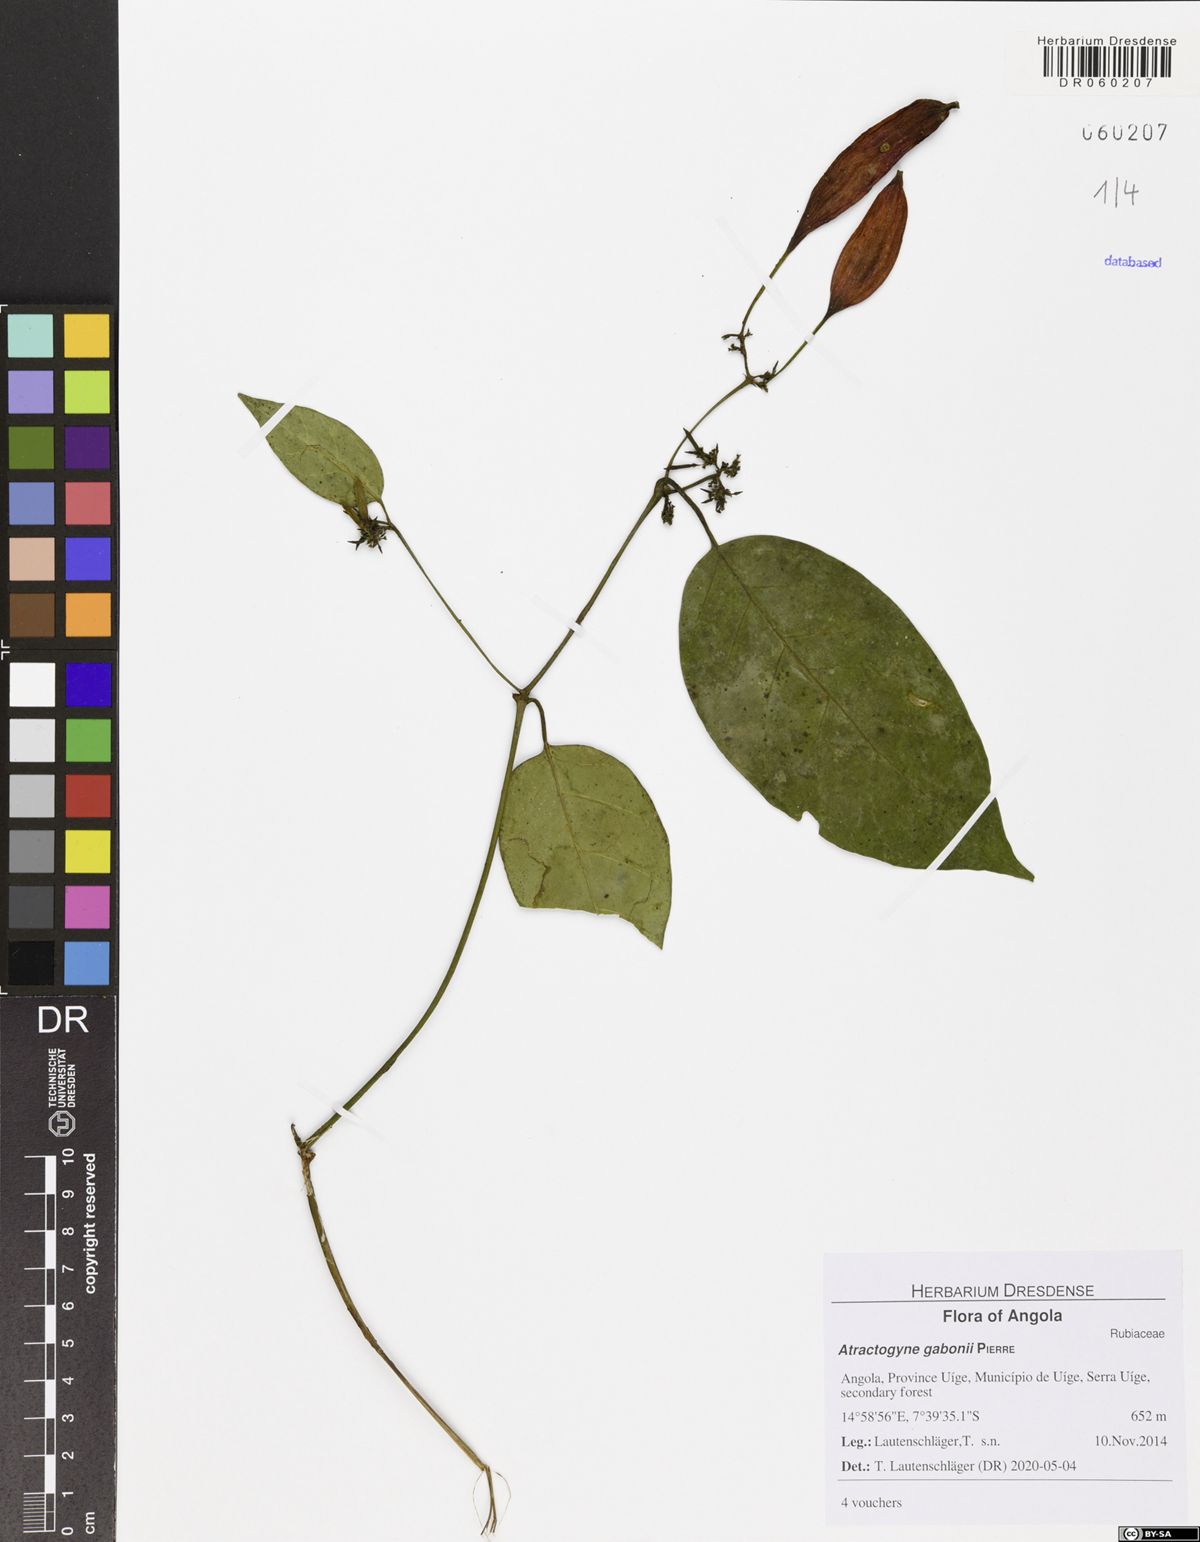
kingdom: Plantae
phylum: Tracheophyta
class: Magnoliopsida
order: Gentianales
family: Rubiaceae
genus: Atractogyne
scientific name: Atractogyne gabonii
